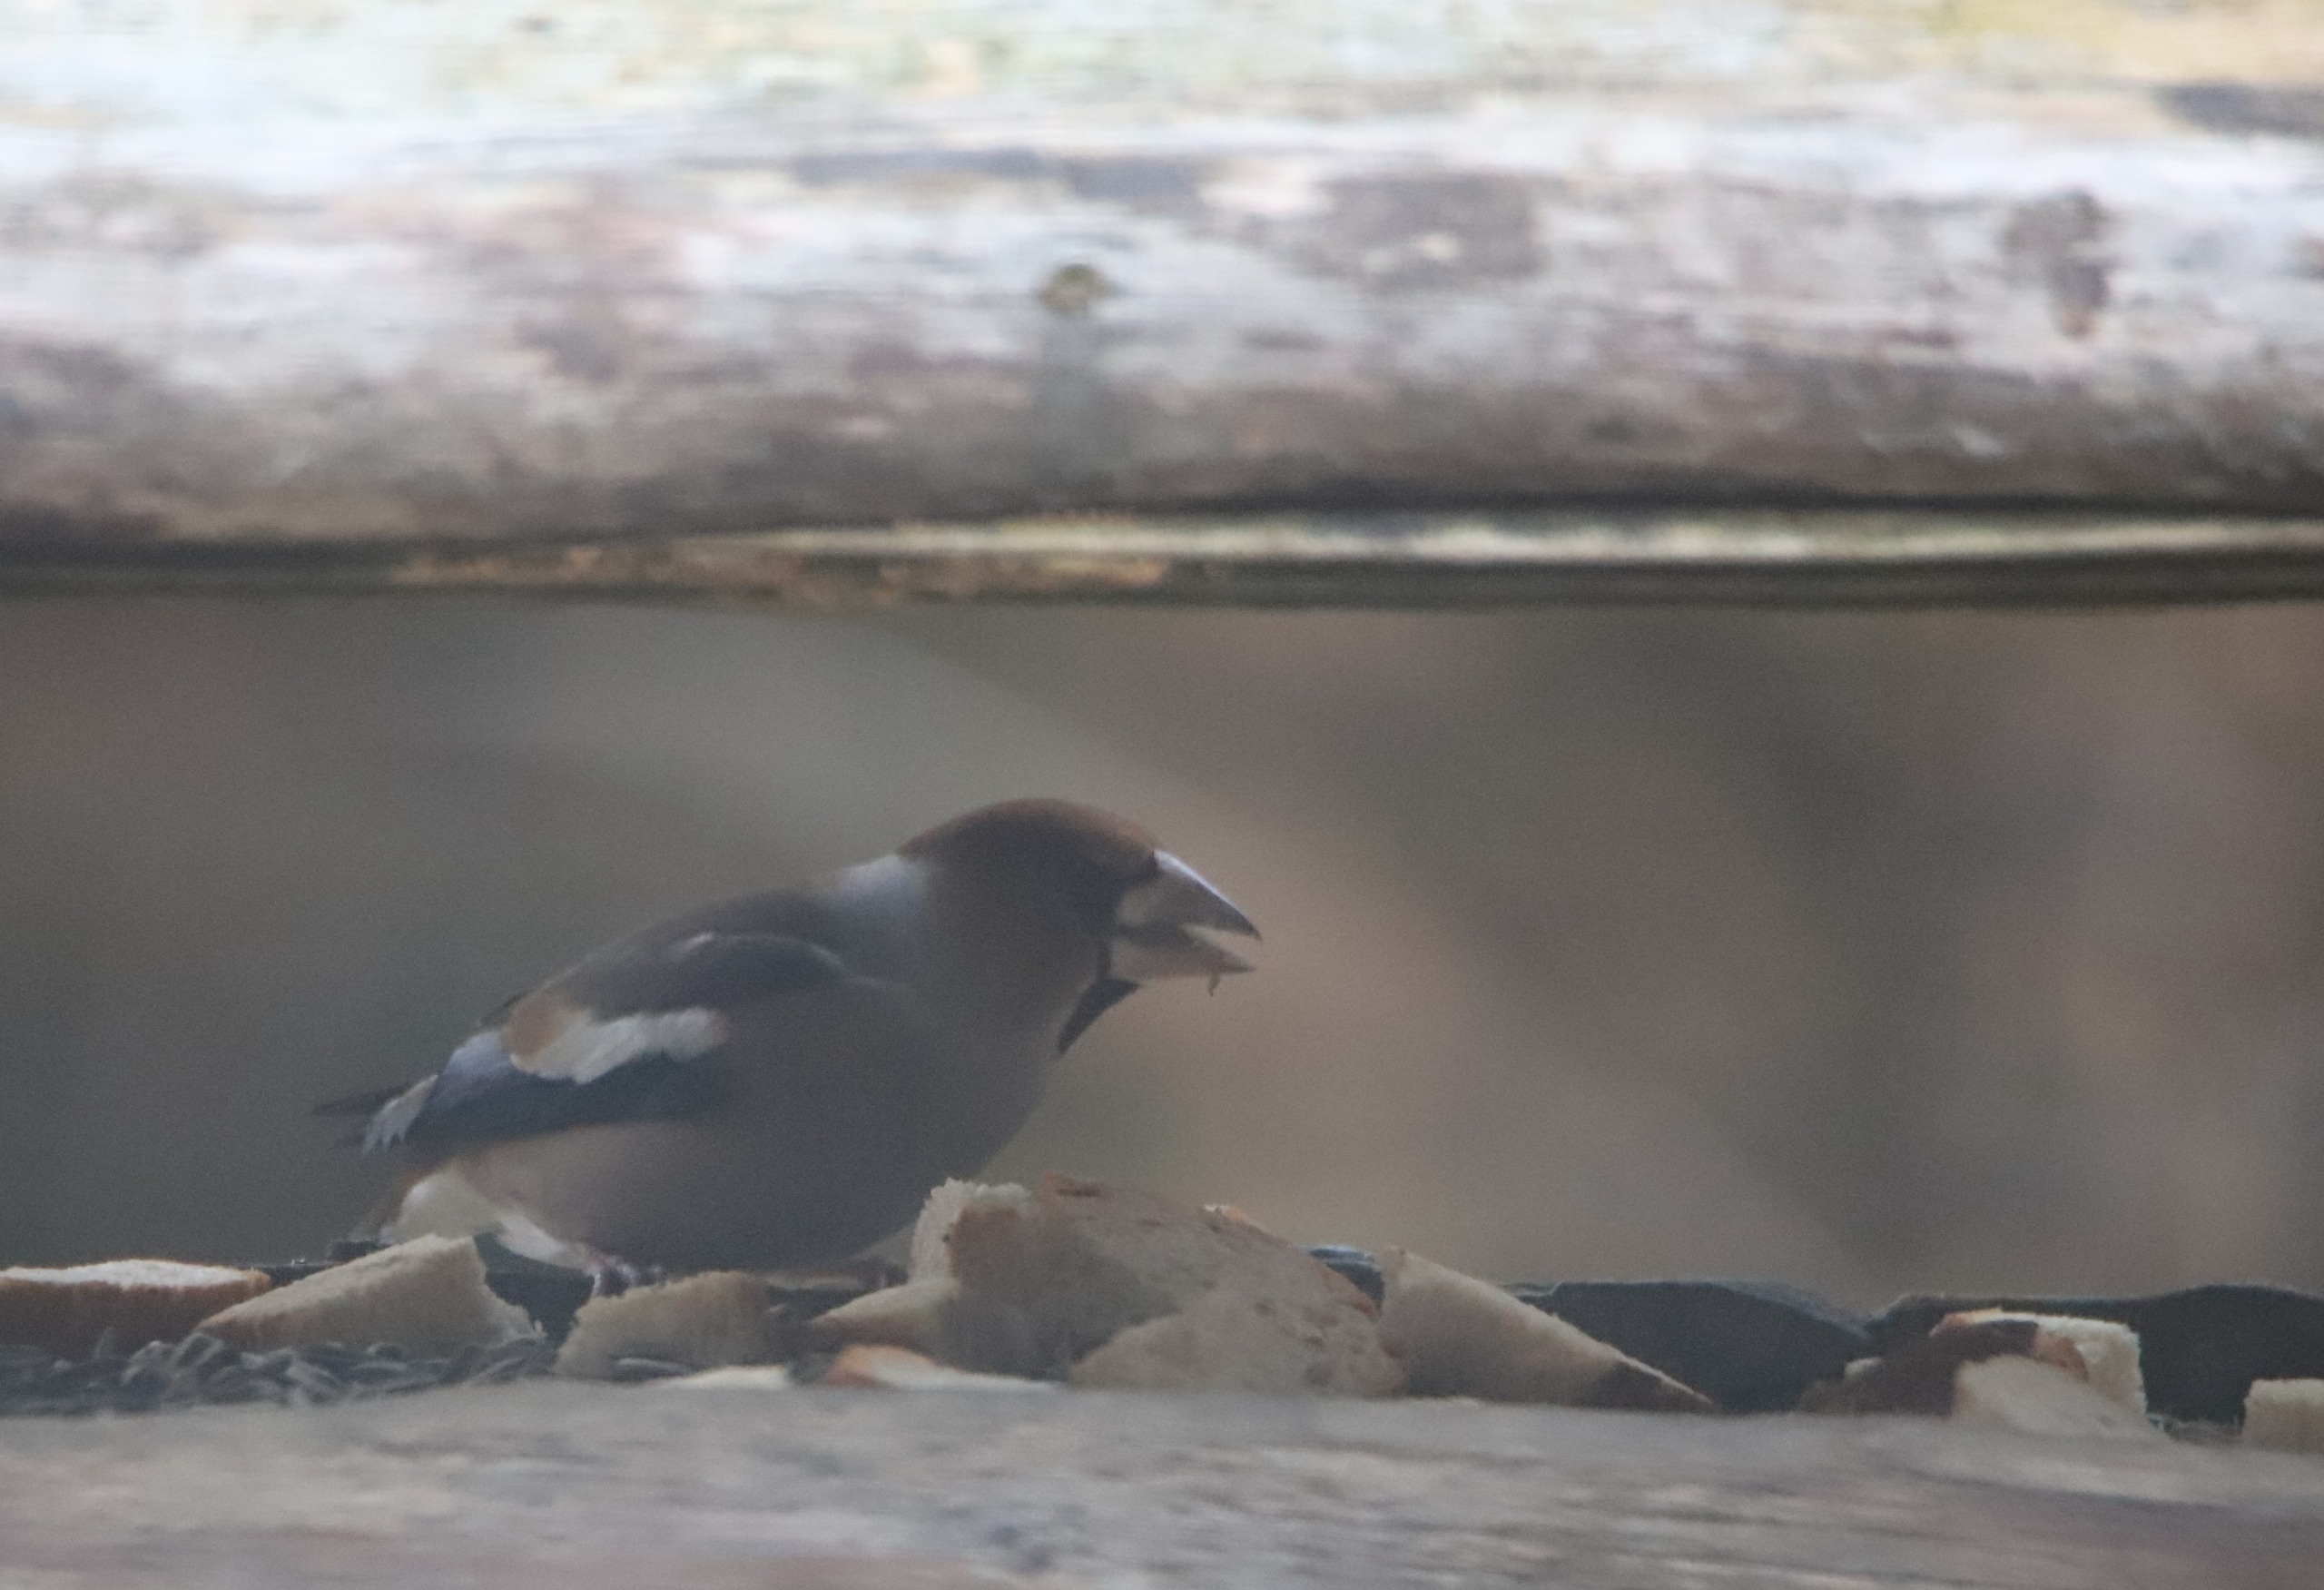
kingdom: Animalia
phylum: Chordata
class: Aves
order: Passeriformes
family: Fringillidae
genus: Coccothraustes
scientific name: Coccothraustes coccothraustes
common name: Kernebider
